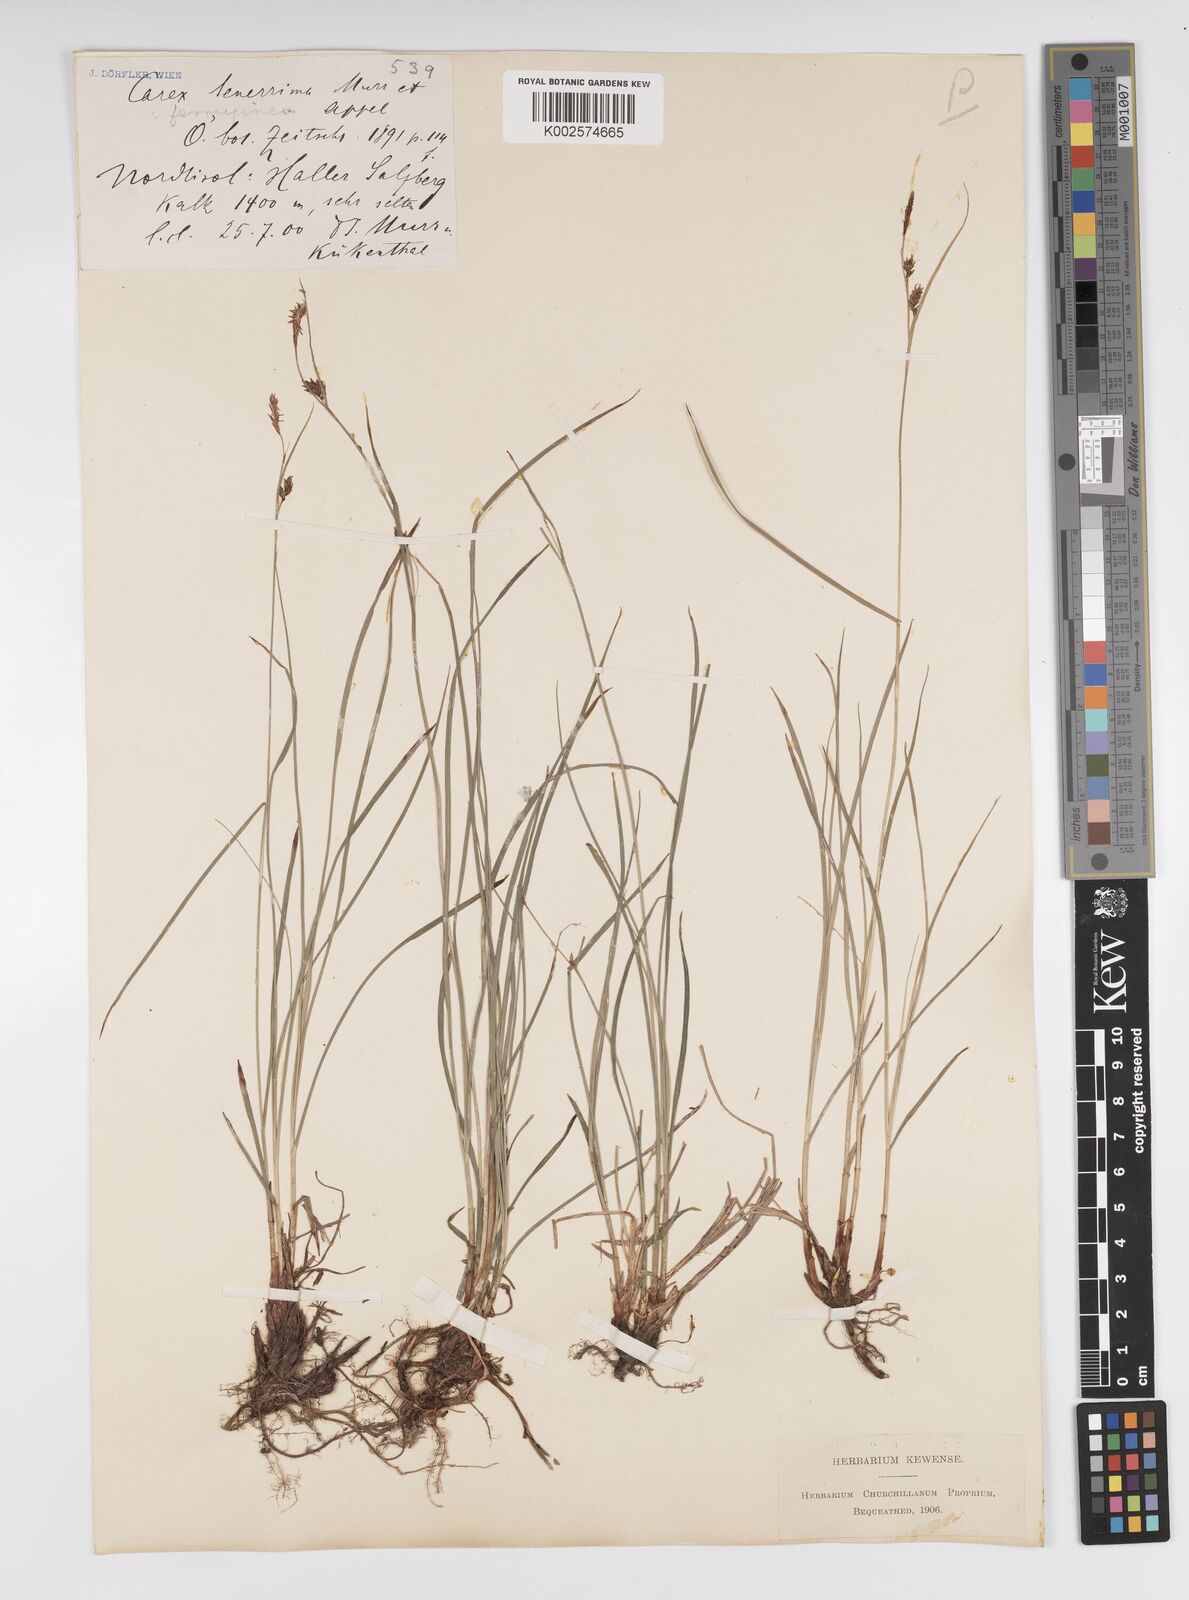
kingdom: Plantae
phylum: Tracheophyta
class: Liliopsida
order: Poales
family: Cyperaceae
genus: Carex
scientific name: Carex ferruginea
